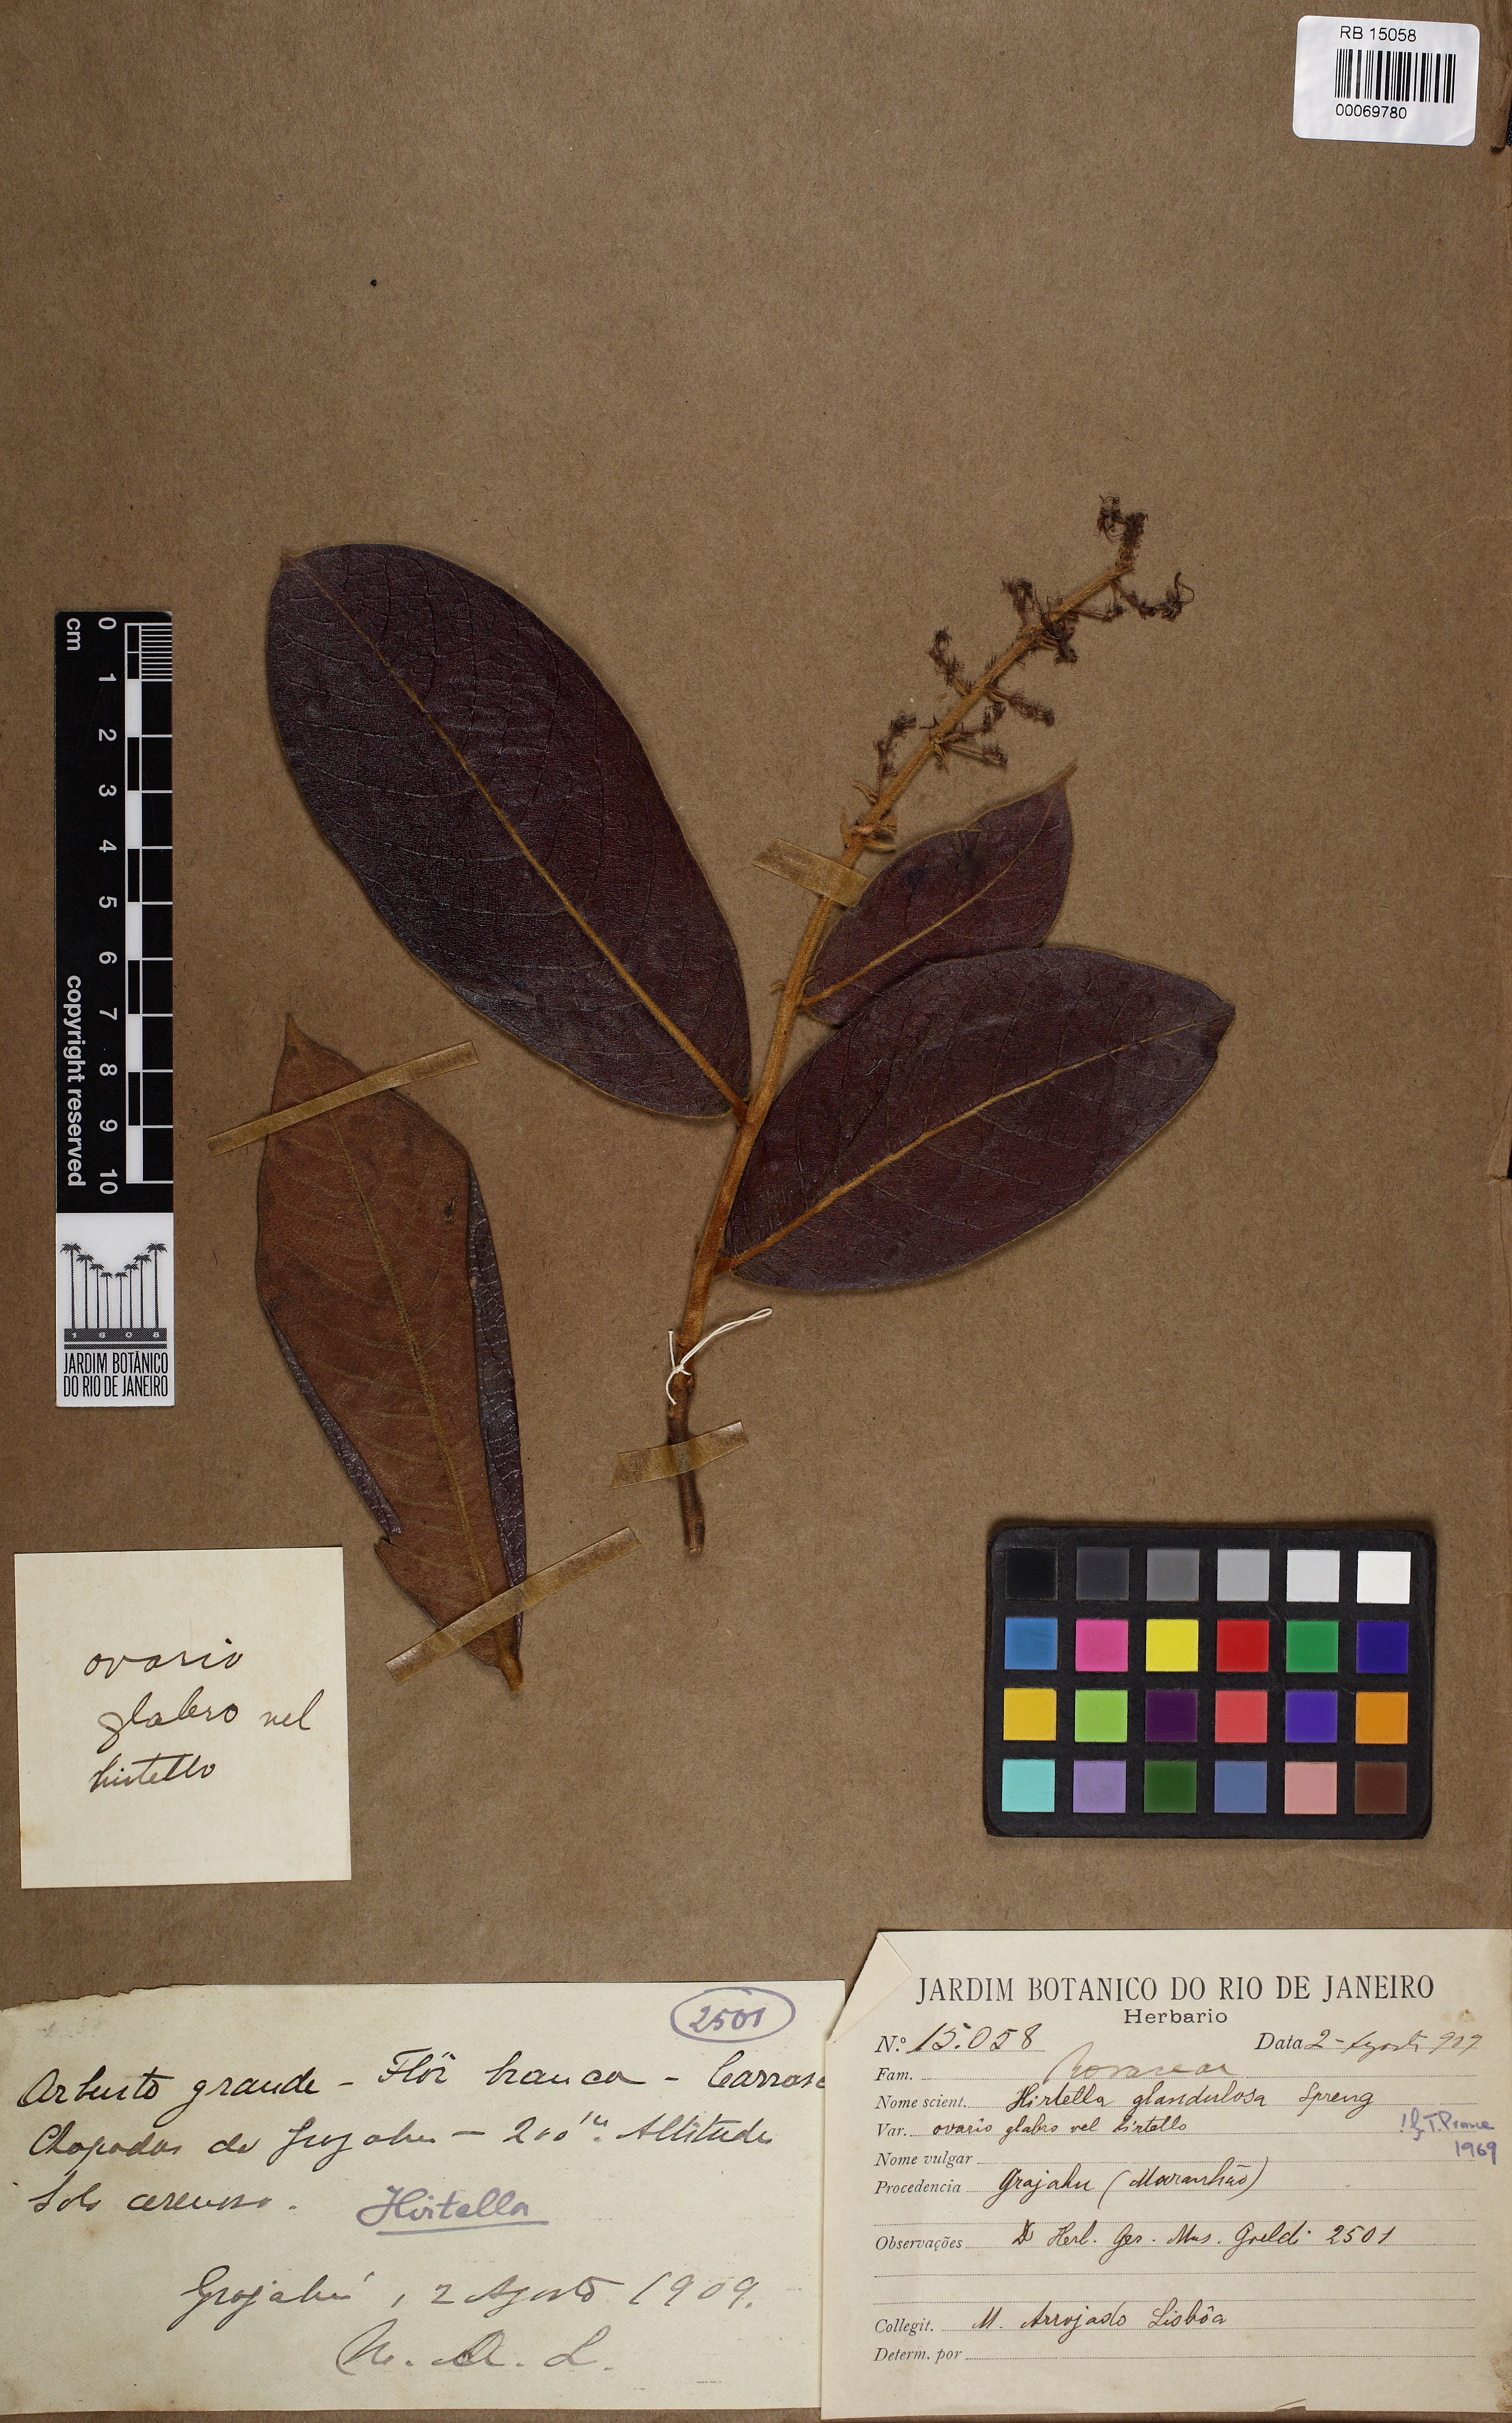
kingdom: Plantae
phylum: Tracheophyta
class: Magnoliopsida
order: Malpighiales
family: Chrysobalanaceae
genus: Hirtella
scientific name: Hirtella glandulosa
